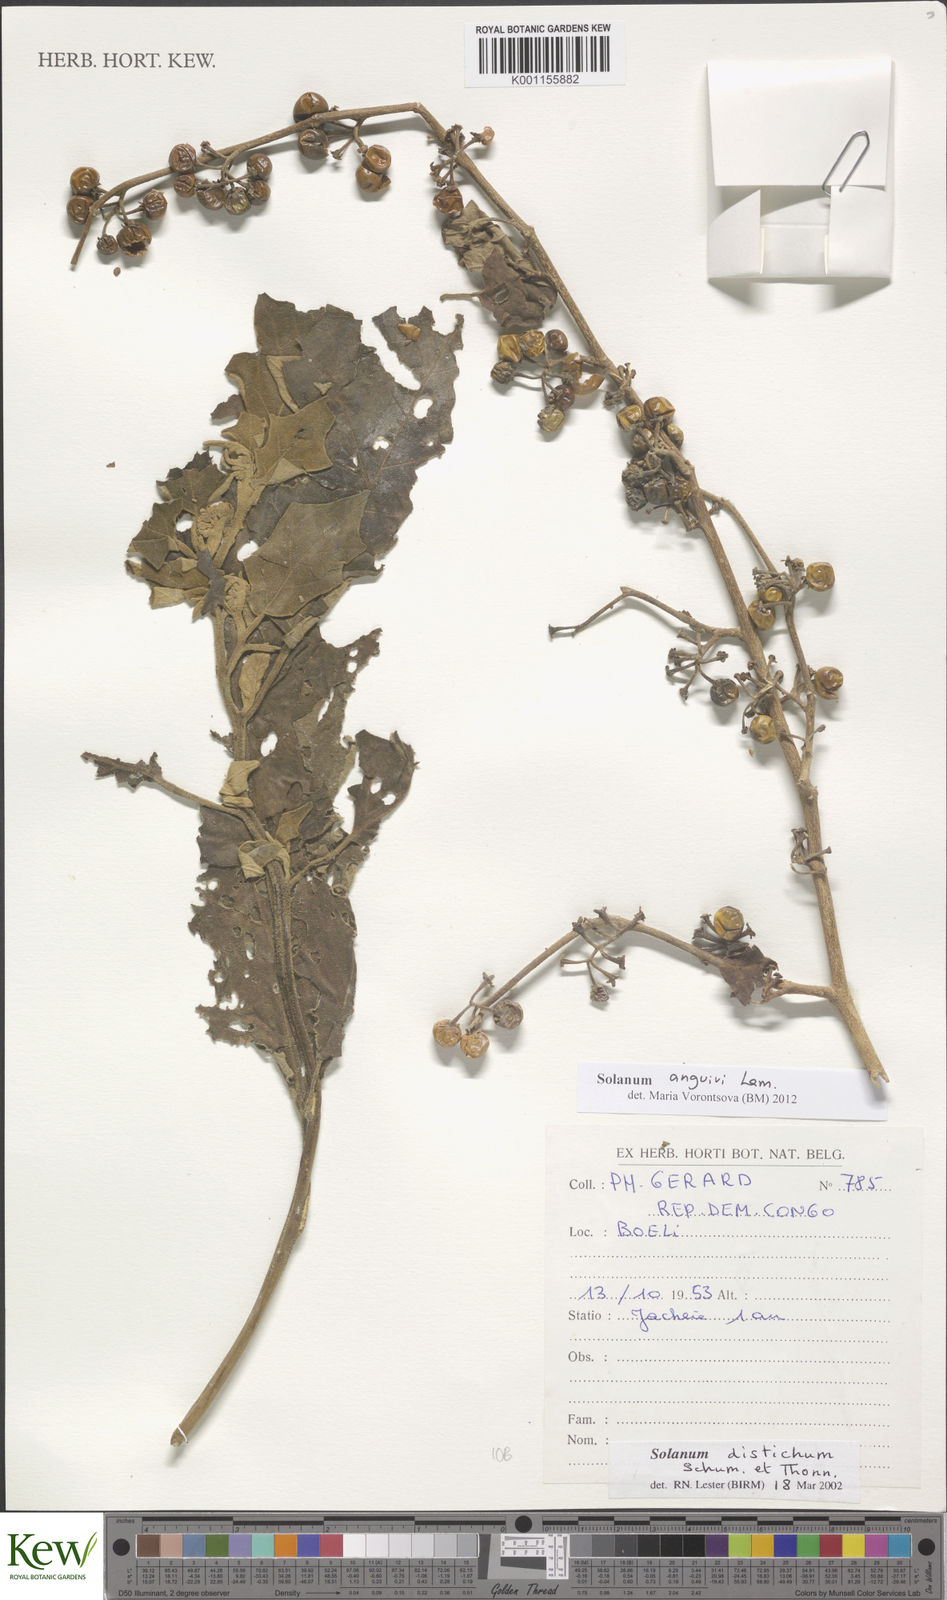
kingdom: Plantae
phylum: Tracheophyta
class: Magnoliopsida
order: Solanales
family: Solanaceae
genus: Solanum
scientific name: Solanum anguivi
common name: Forest bitterberry
